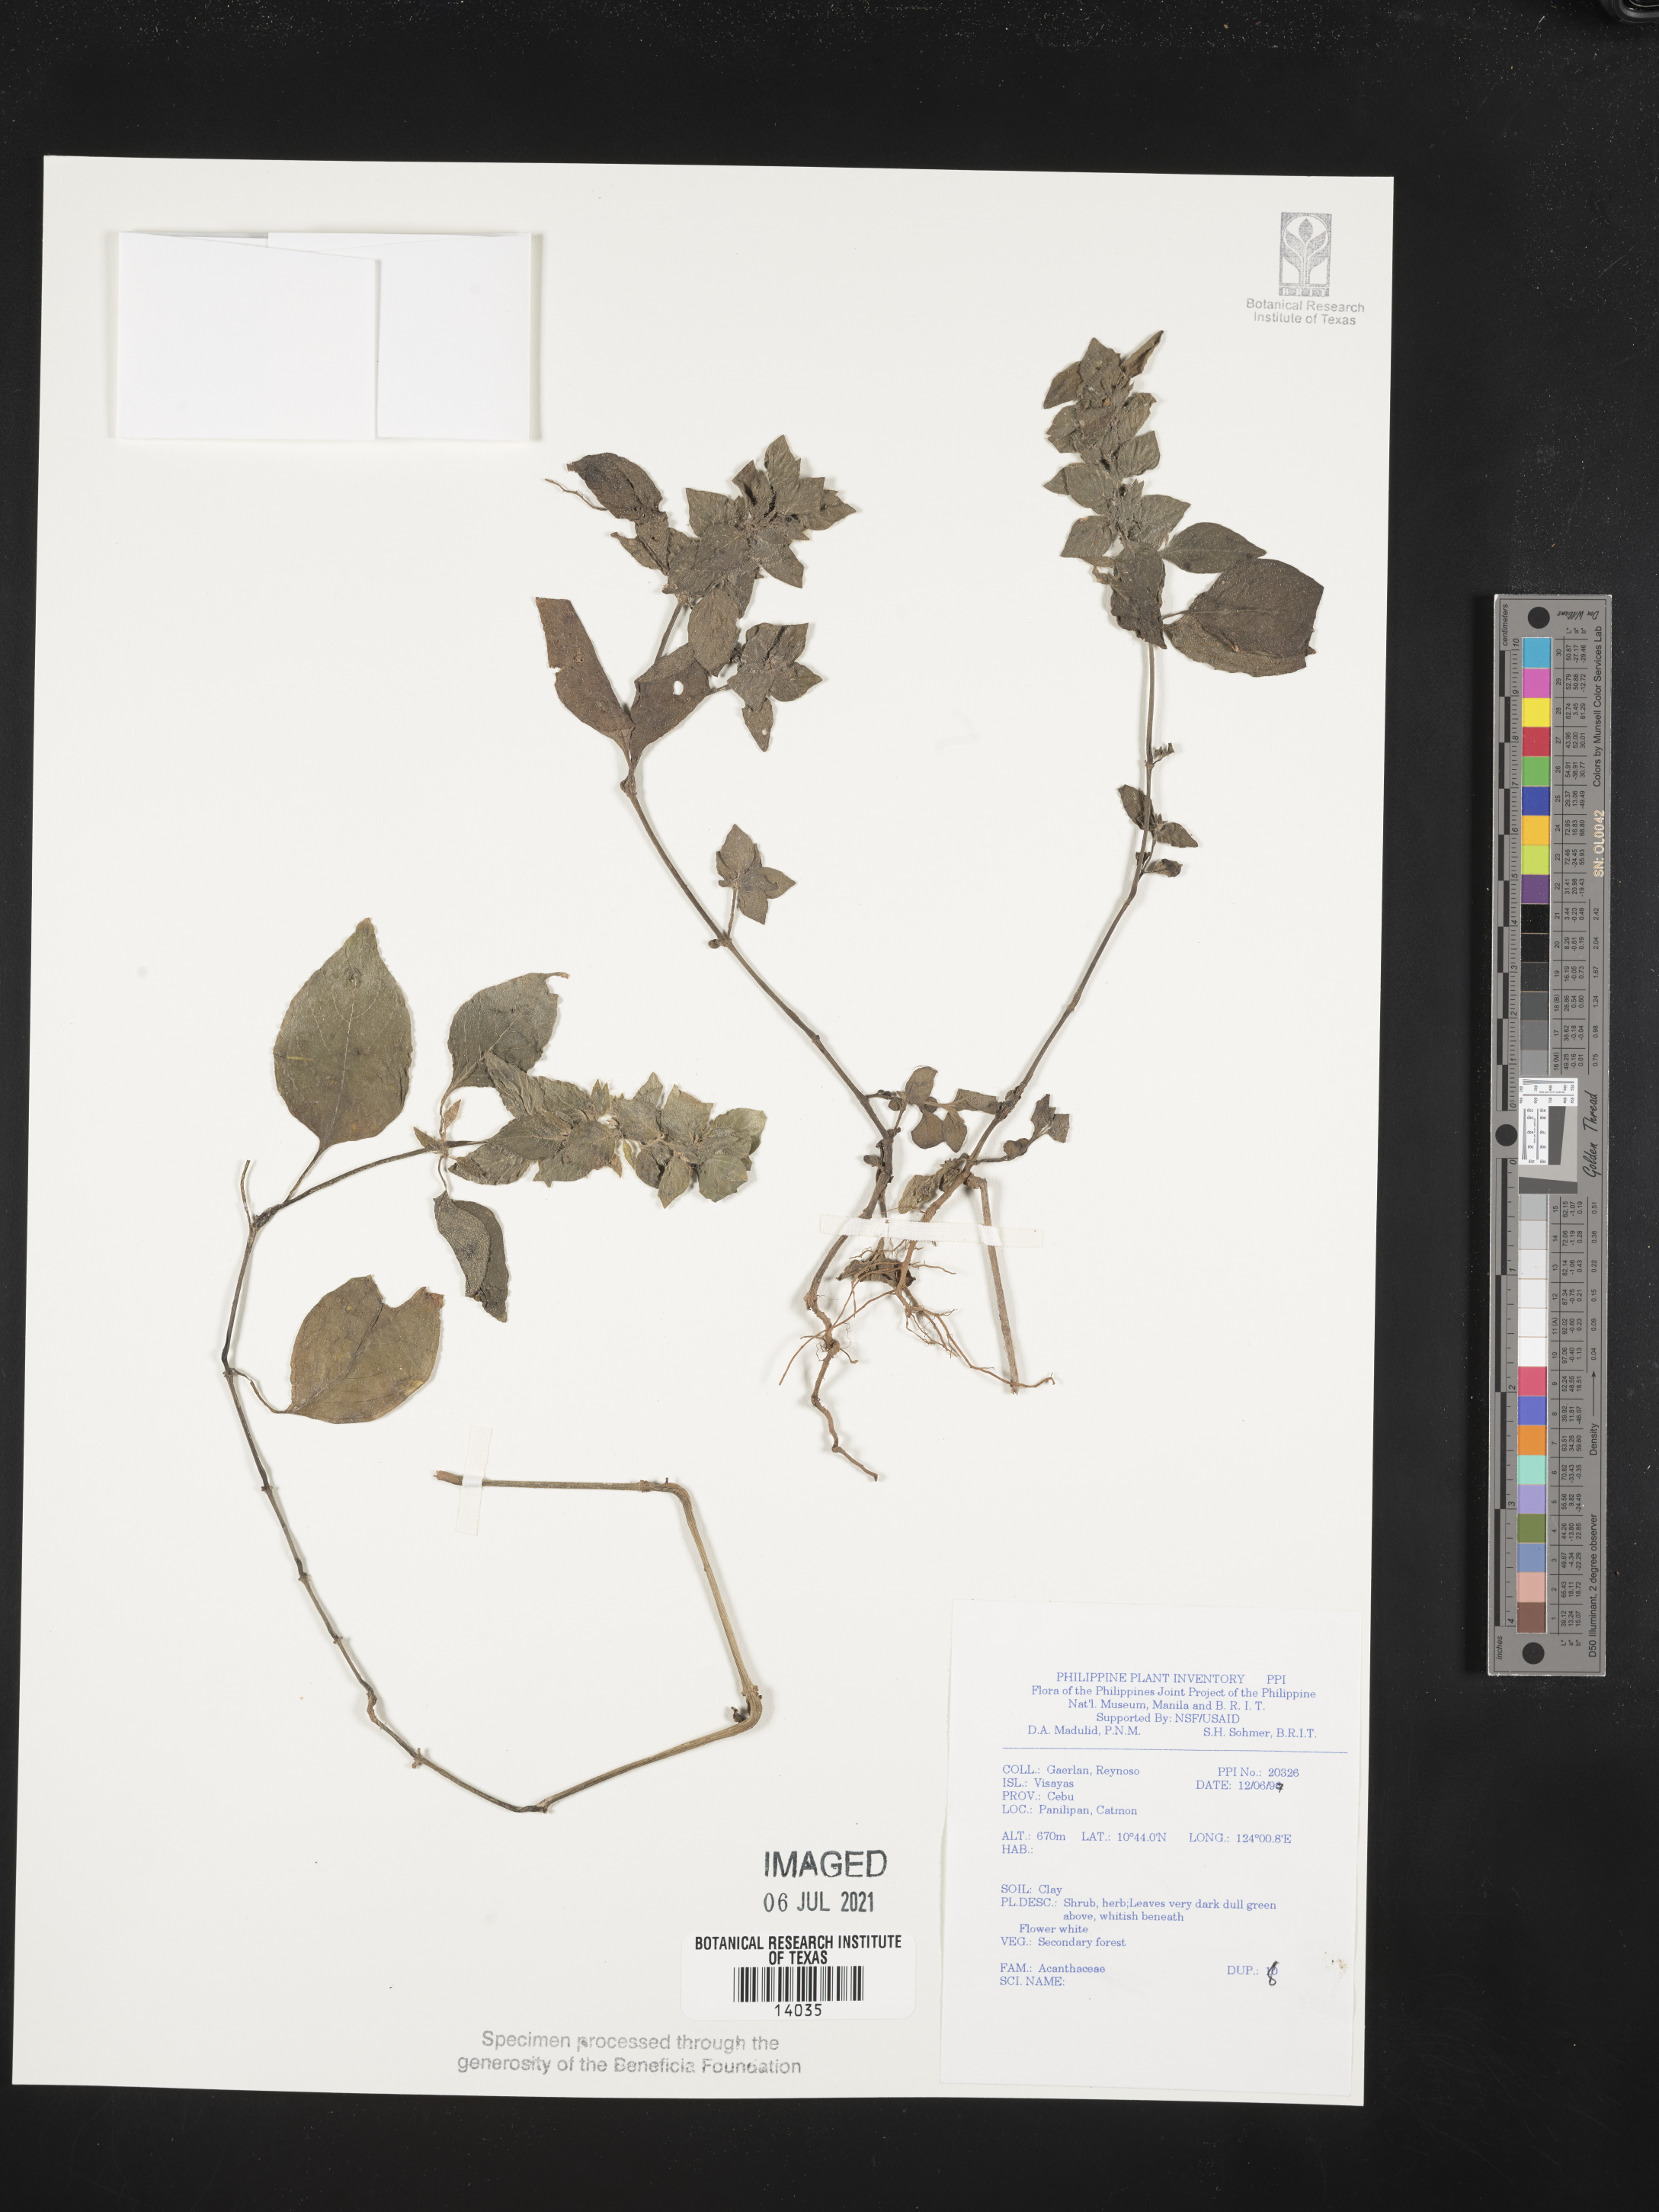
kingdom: Plantae
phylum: Tracheophyta
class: Magnoliopsida
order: Lamiales
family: Acanthaceae
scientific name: Acanthaceae
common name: Acanthaceae
